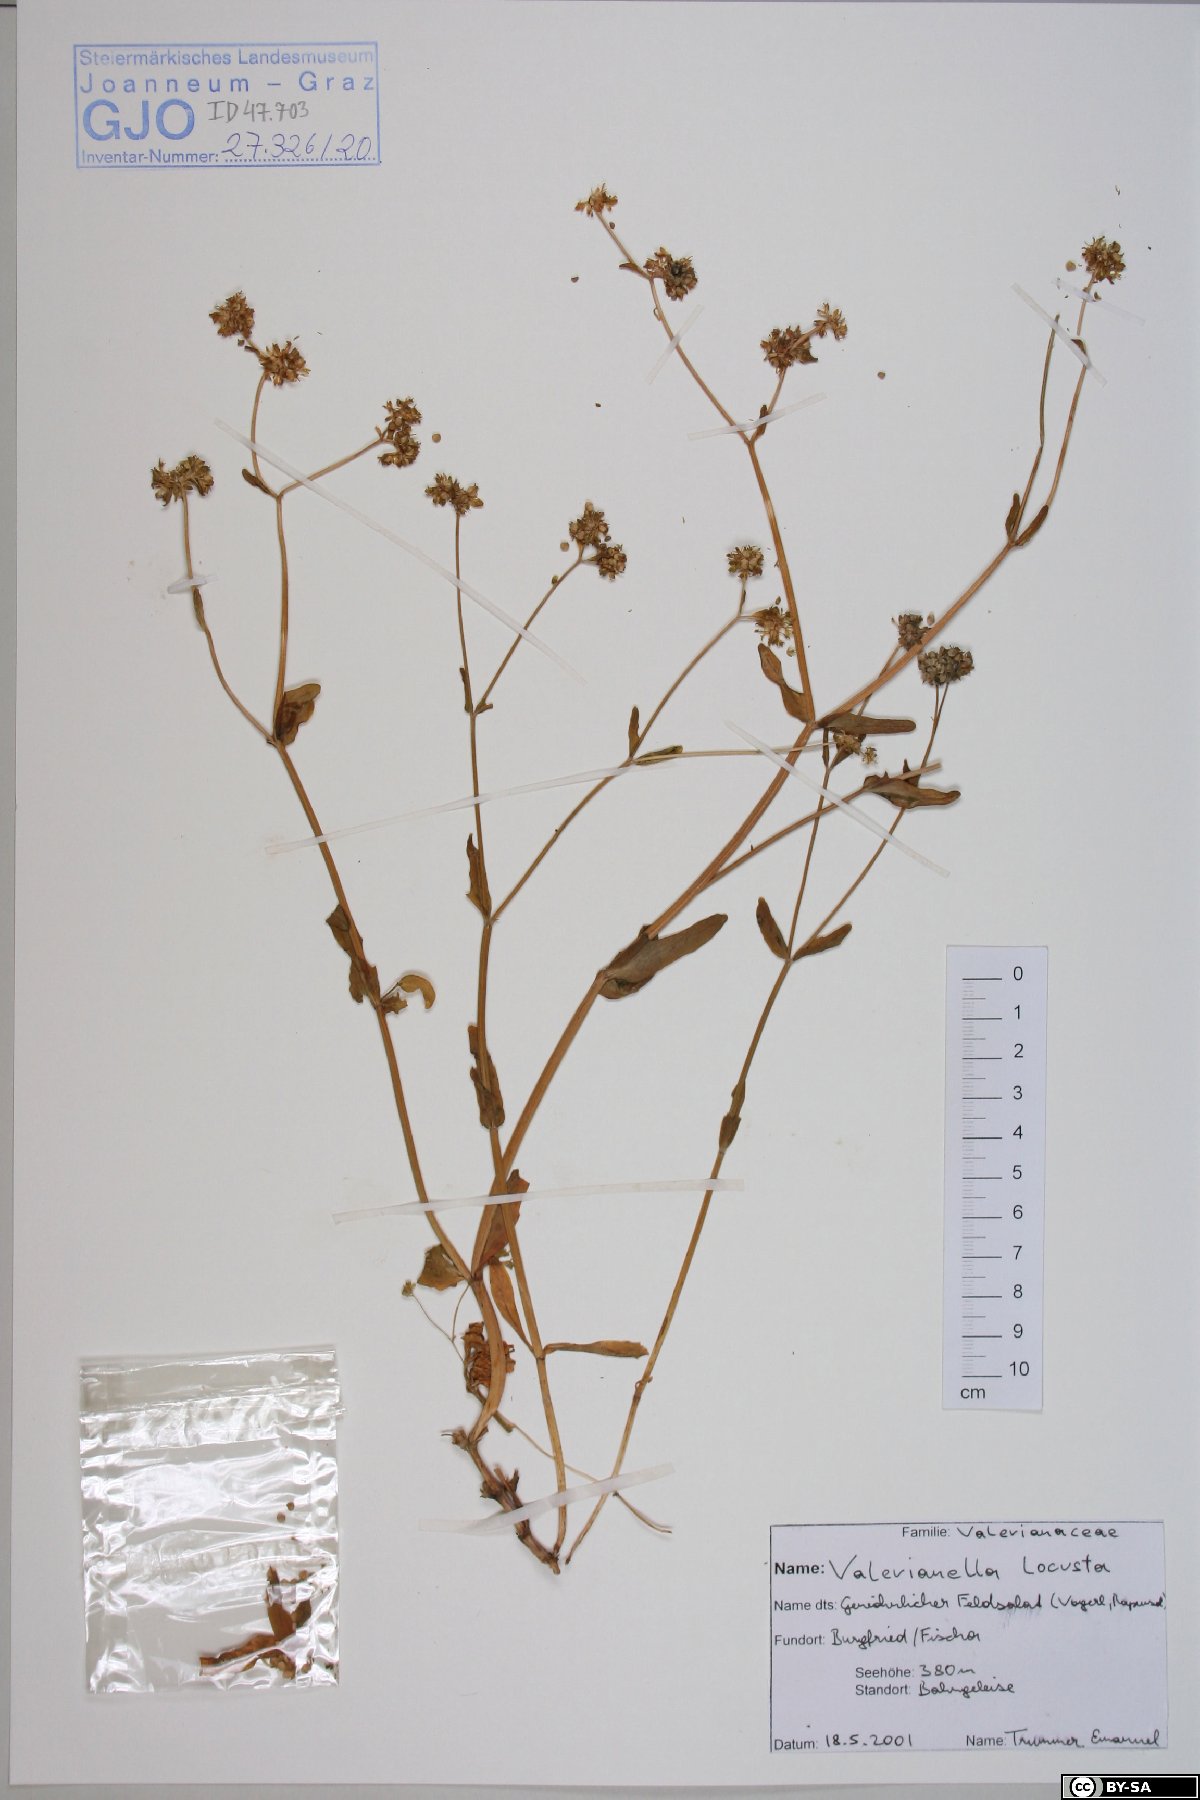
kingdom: Plantae
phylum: Tracheophyta
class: Magnoliopsida
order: Dipsacales
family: Caprifoliaceae
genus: Valerianella
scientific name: Valerianella locusta
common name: Common cornsalad
